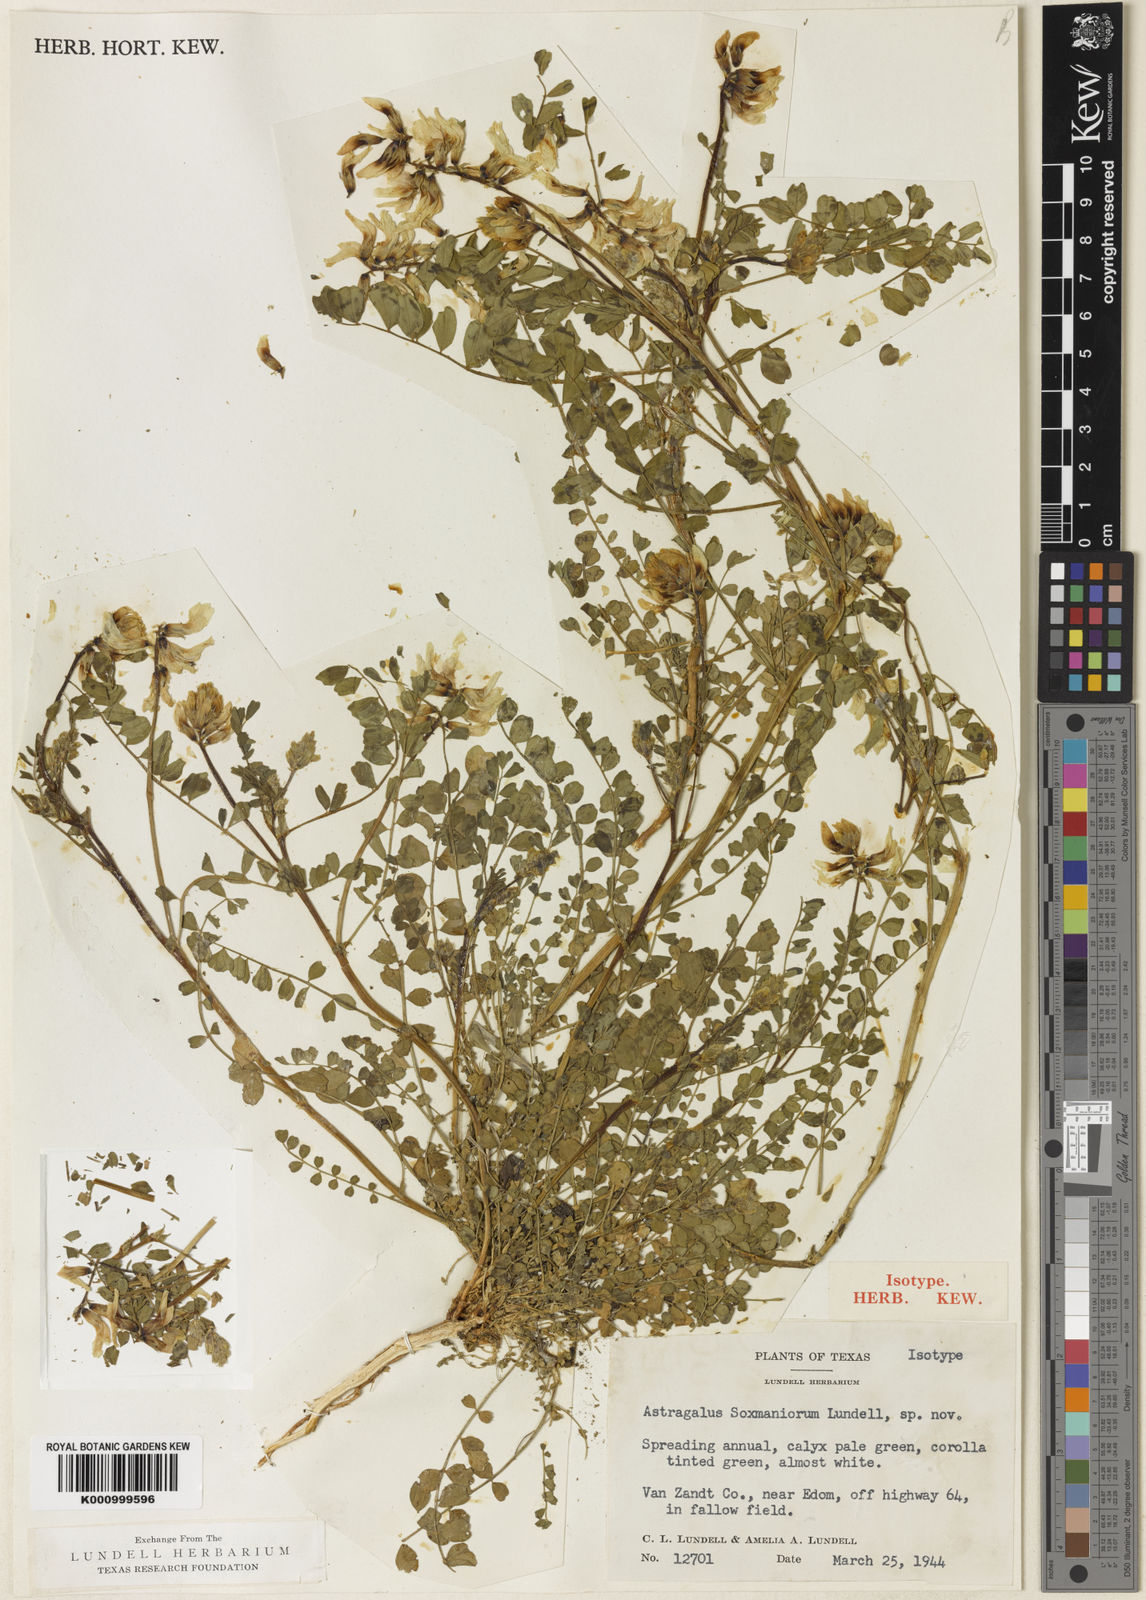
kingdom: Plantae
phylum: Tracheophyta
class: Magnoliopsida
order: Fabales
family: Fabaceae
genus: Astragalus
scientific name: Astragalus soxmaniorum
